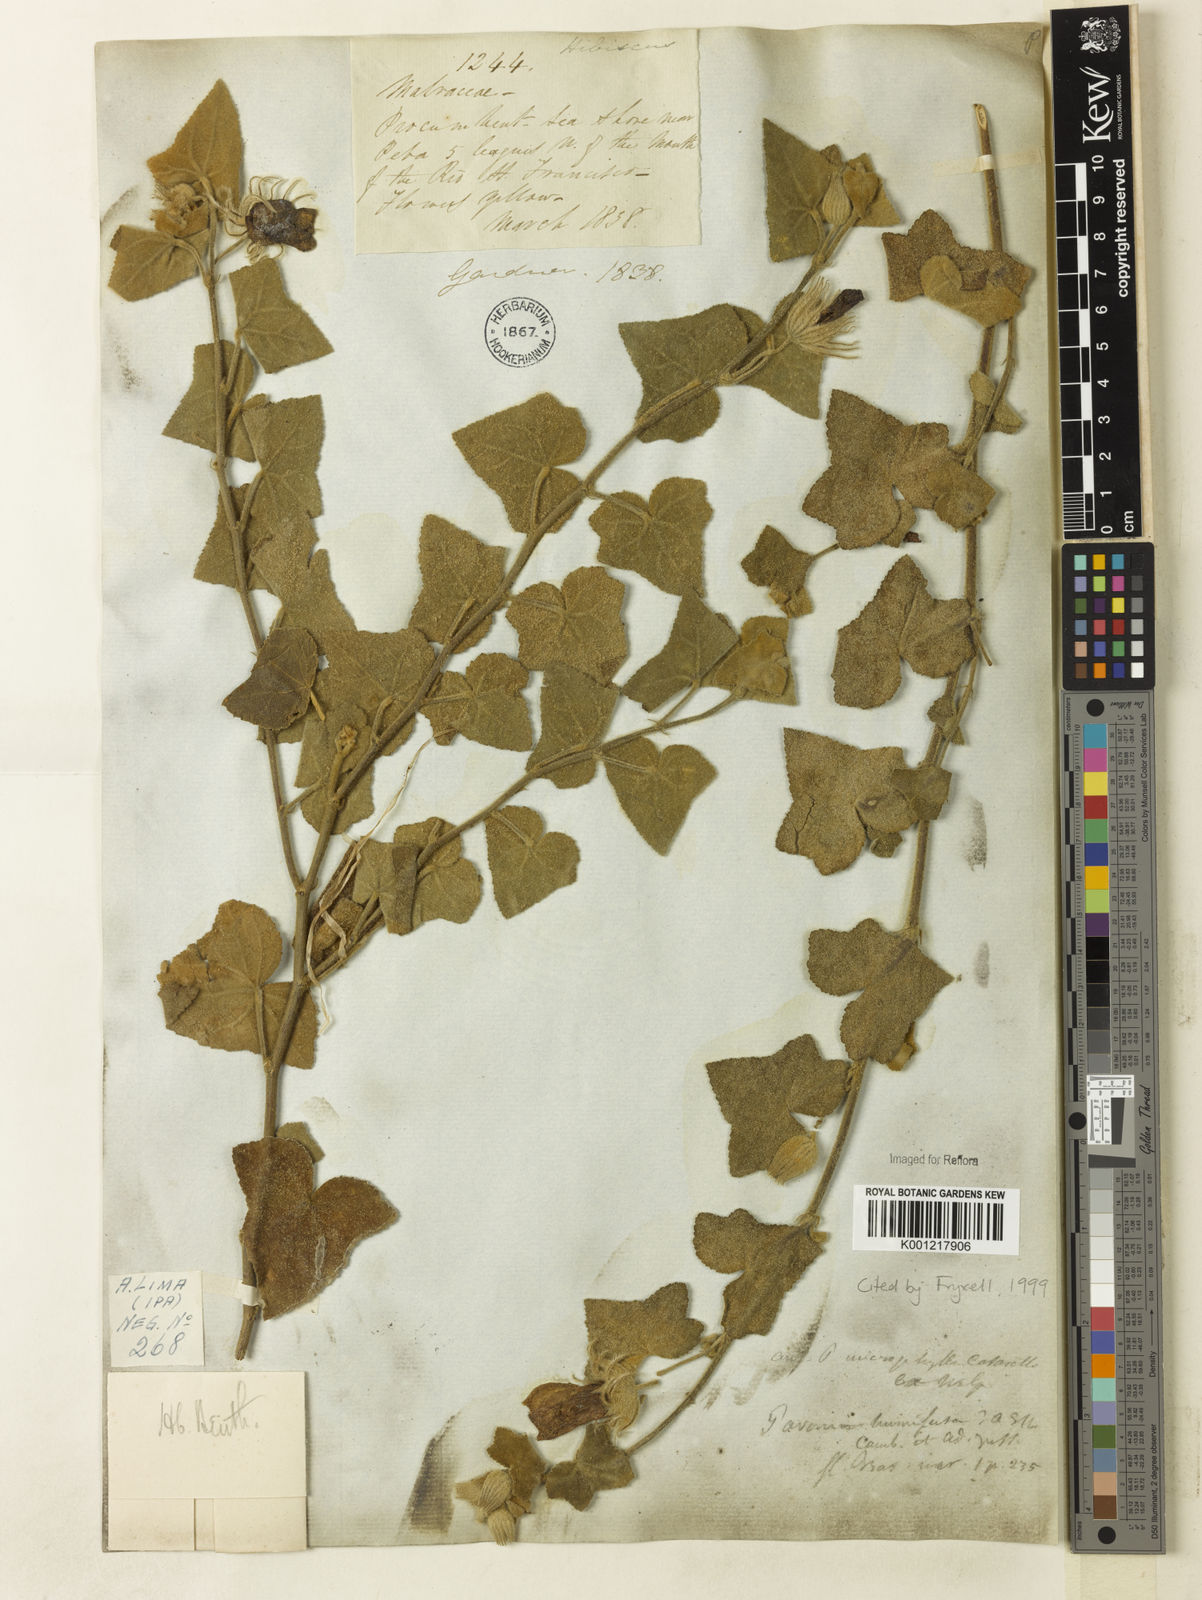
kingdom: Plantae
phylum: Tracheophyta
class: Magnoliopsida
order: Malvales
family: Malvaceae
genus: Pavonia
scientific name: Pavonia humifusa
